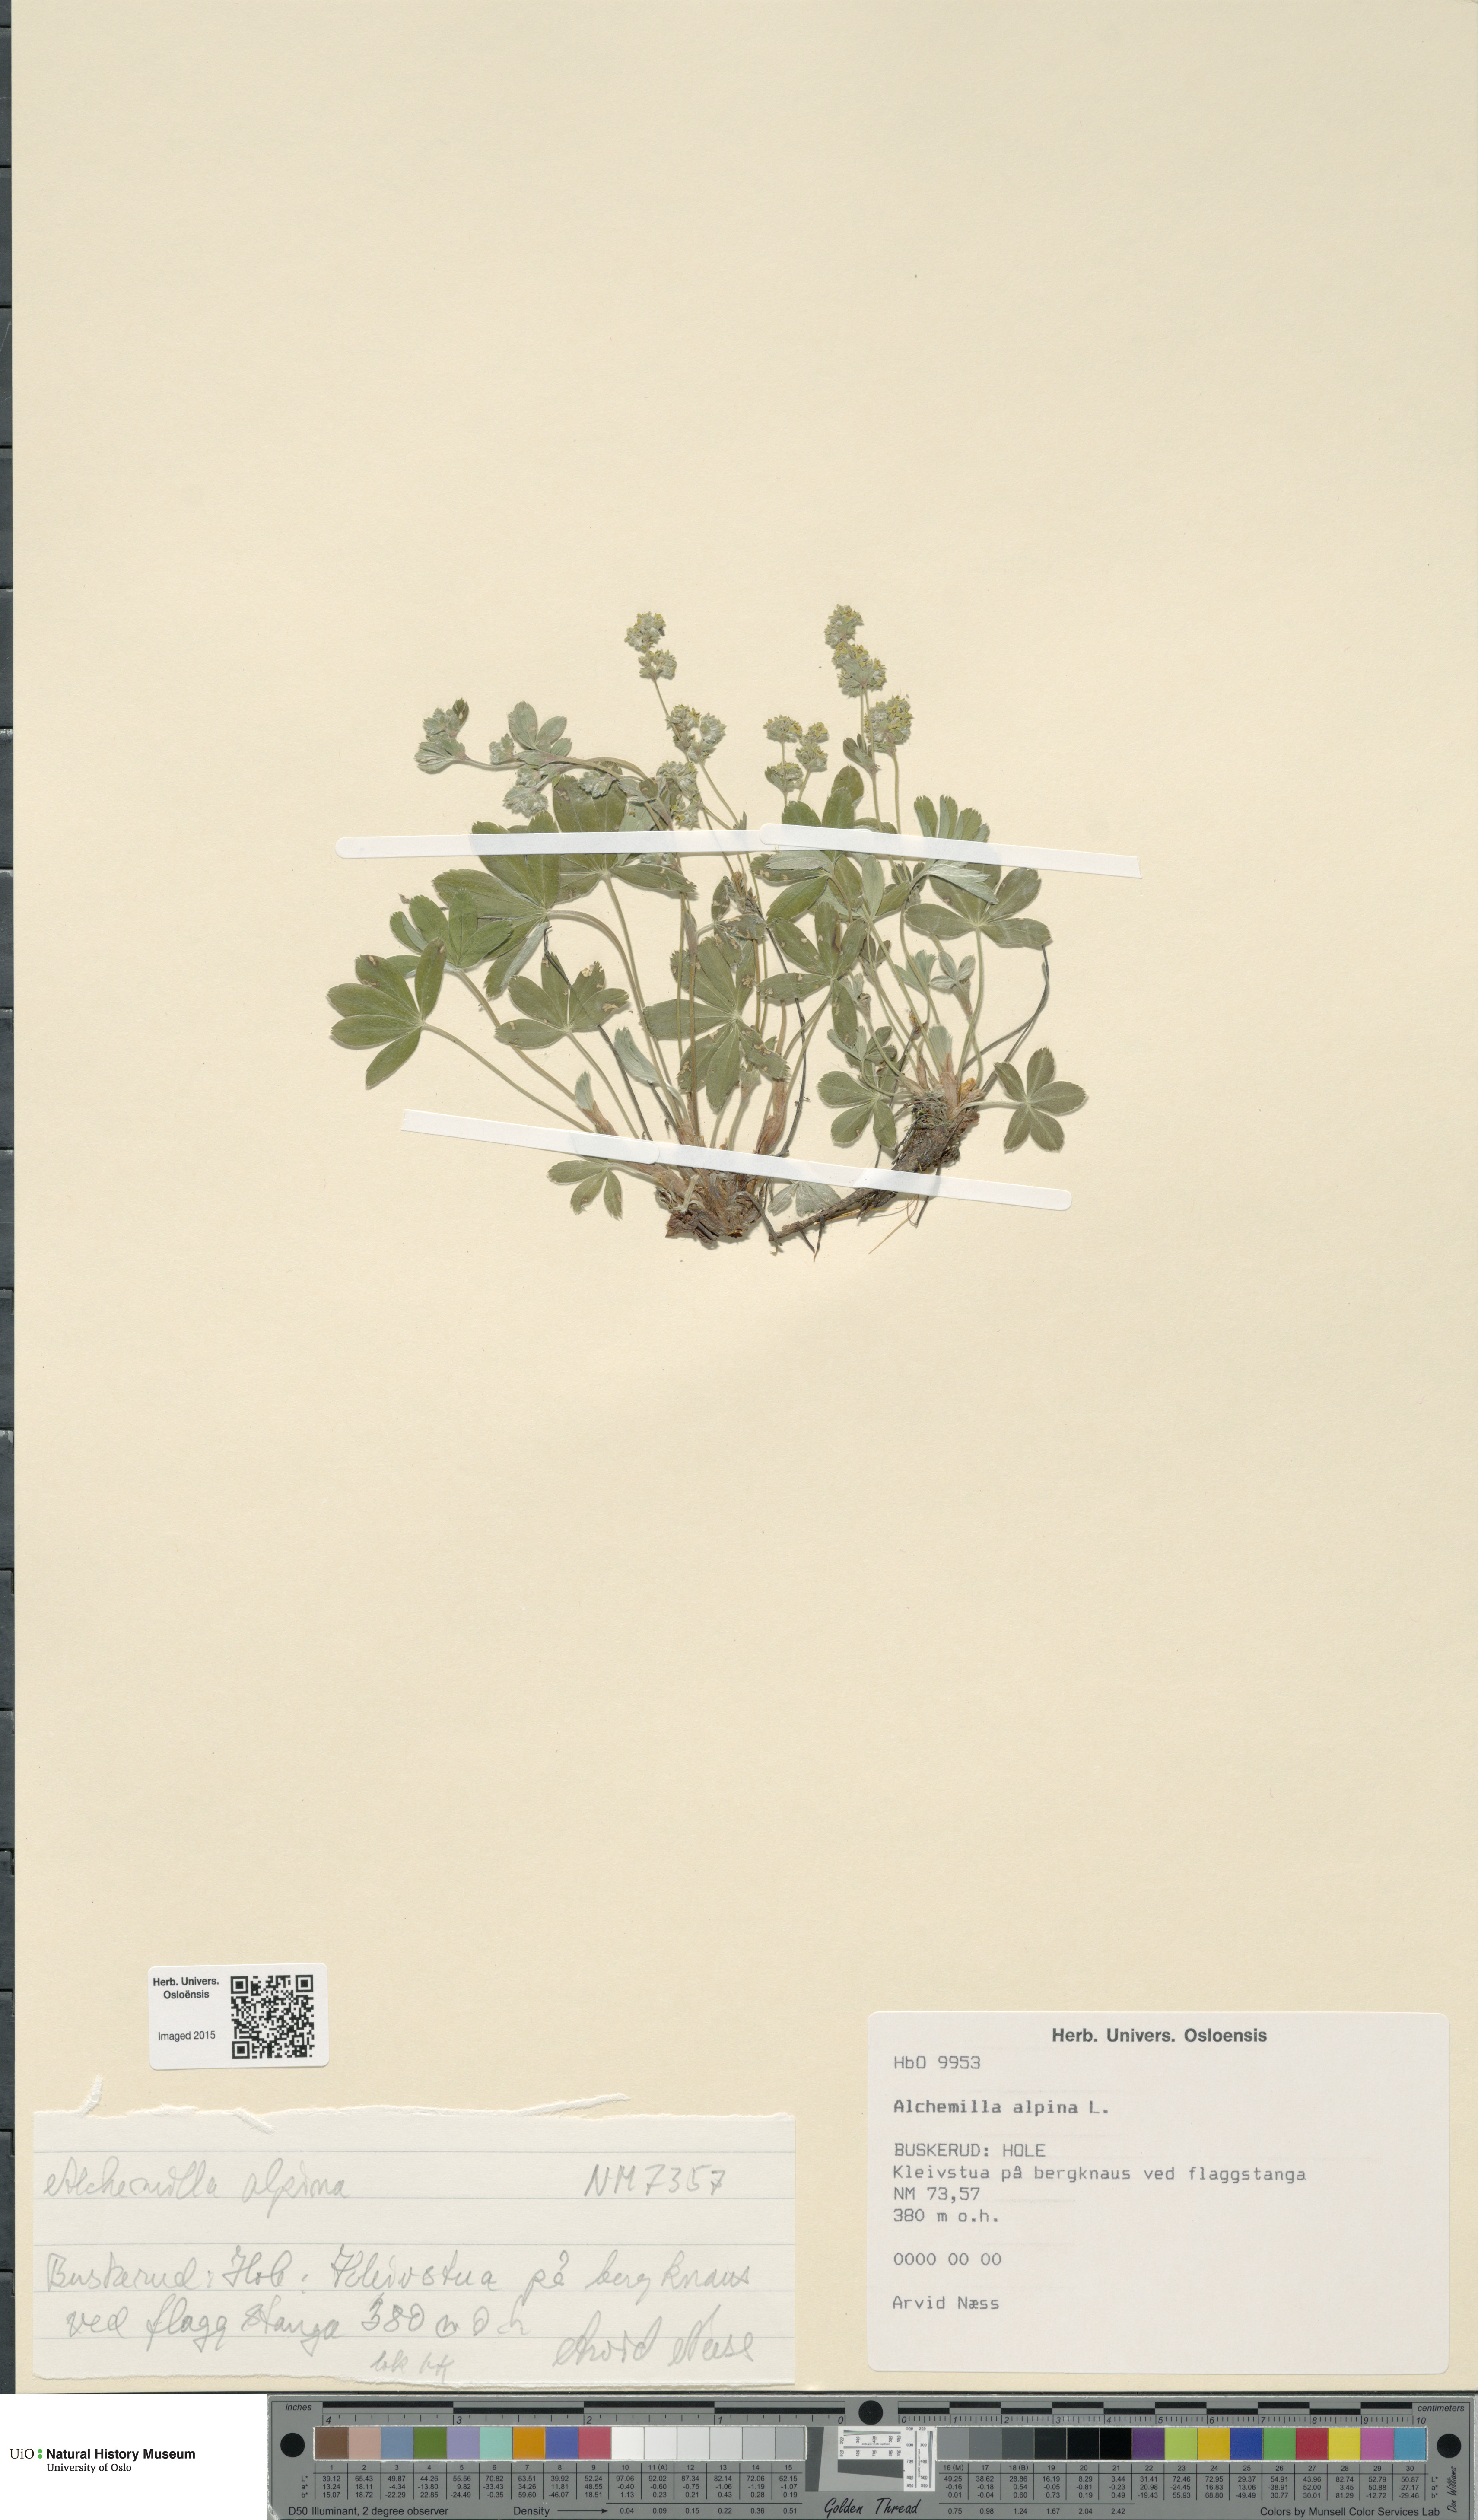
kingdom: Plantae
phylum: Tracheophyta
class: Magnoliopsida
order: Rosales
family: Rosaceae
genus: Alchemilla
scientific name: Alchemilla alpina
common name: Alpine lady's-mantle
